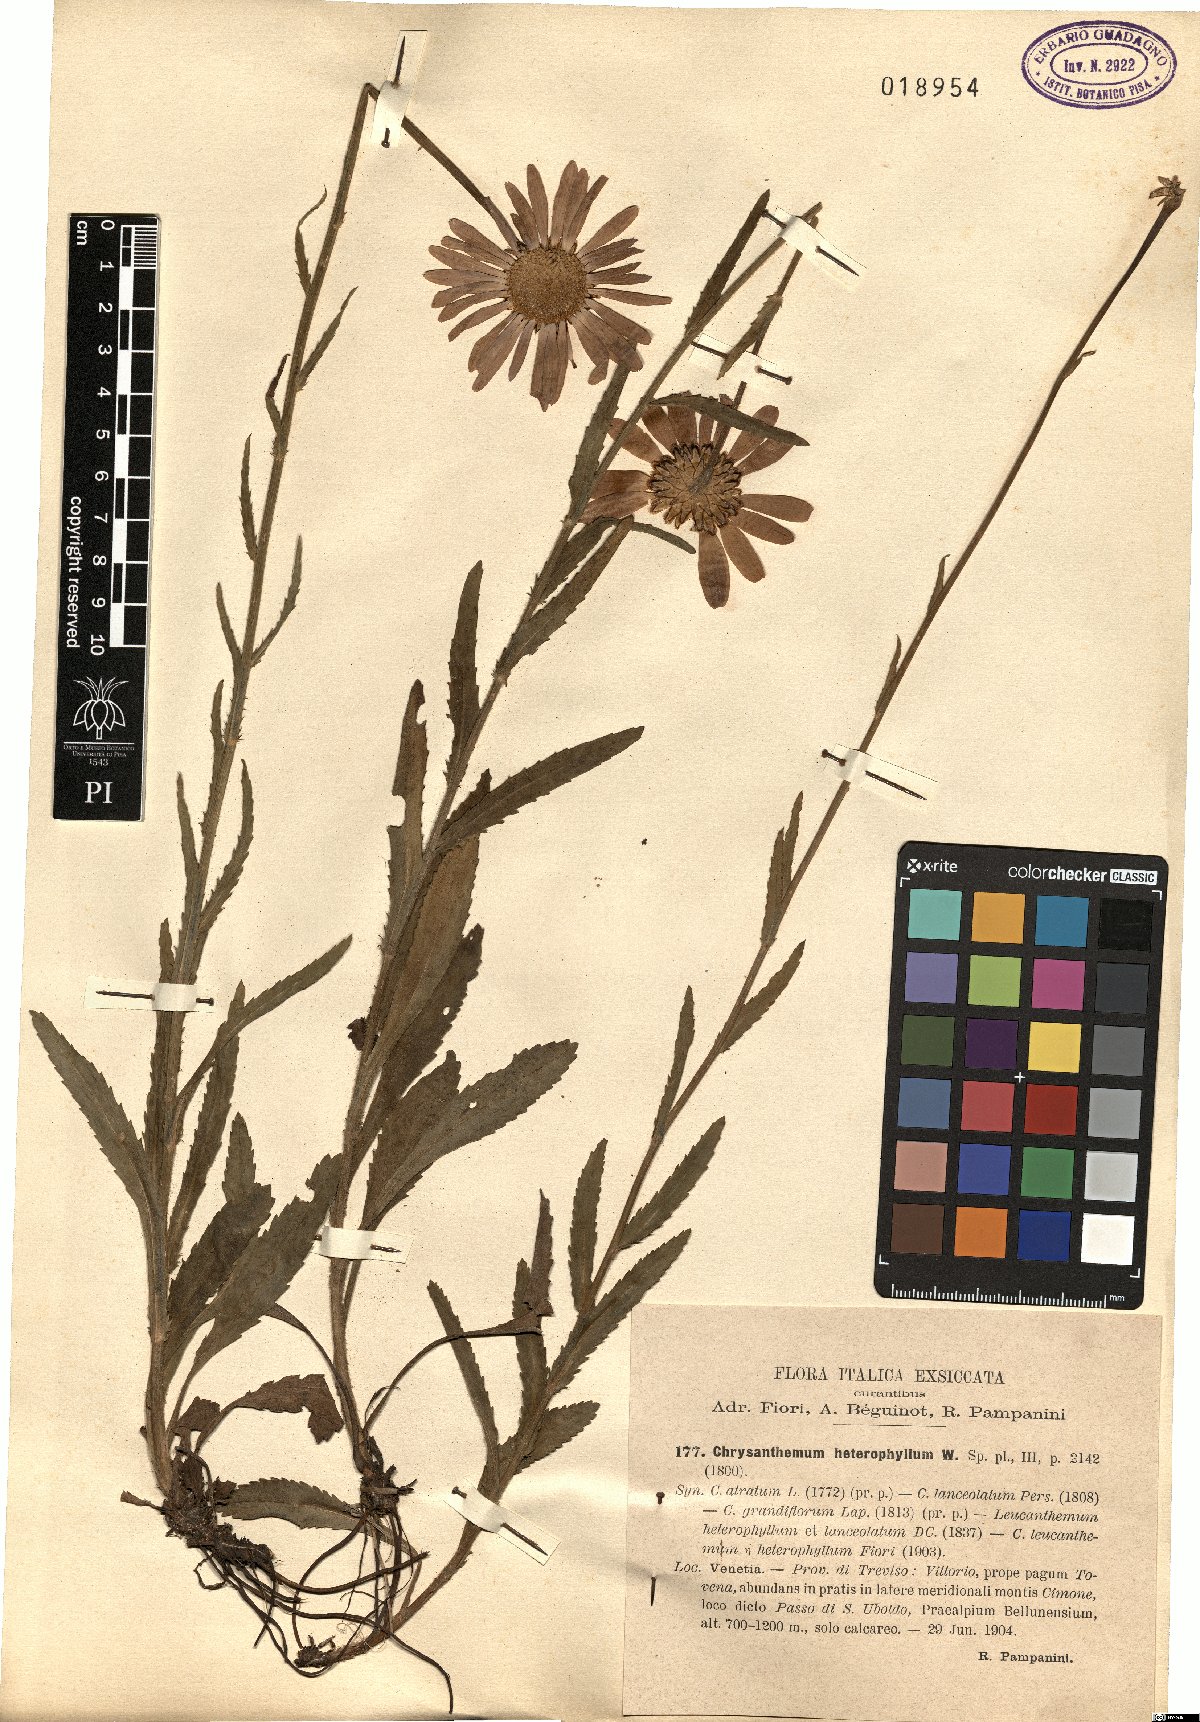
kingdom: Plantae
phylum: Tracheophyta
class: Magnoliopsida
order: Asterales
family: Asteraceae
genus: Leucanthemum
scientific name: Leucanthemum heterophyllum
